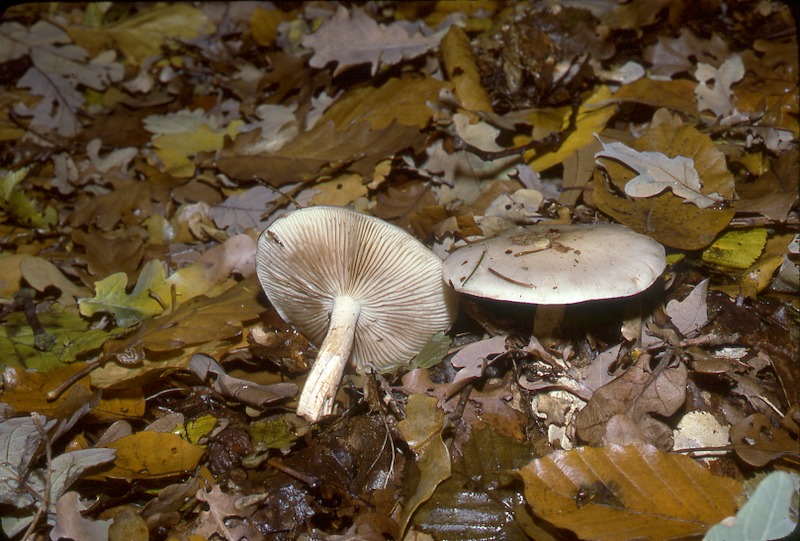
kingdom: Fungi
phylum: Basidiomycota
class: Agaricomycetes
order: Agaricales
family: Hymenogastraceae
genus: Hebeloma
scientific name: Hebeloma crustuliniforme
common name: Poison pie
